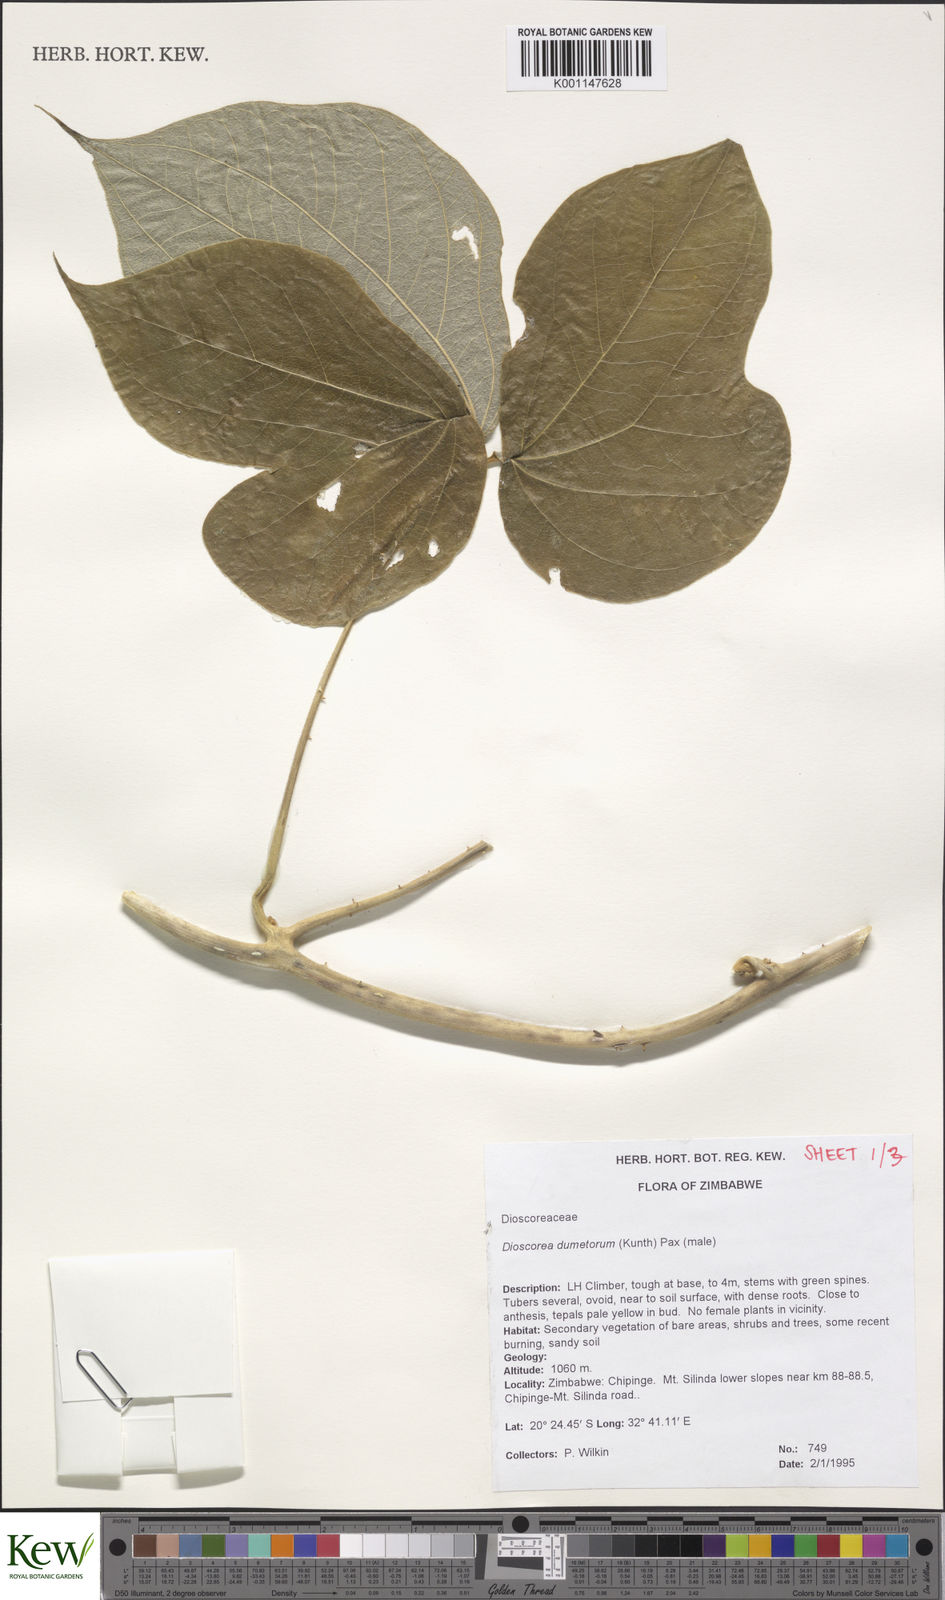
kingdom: Plantae
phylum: Tracheophyta
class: Liliopsida
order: Dioscoreales
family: Dioscoreaceae
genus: Dioscorea
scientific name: Dioscorea dumetorum
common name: African bitter yam
